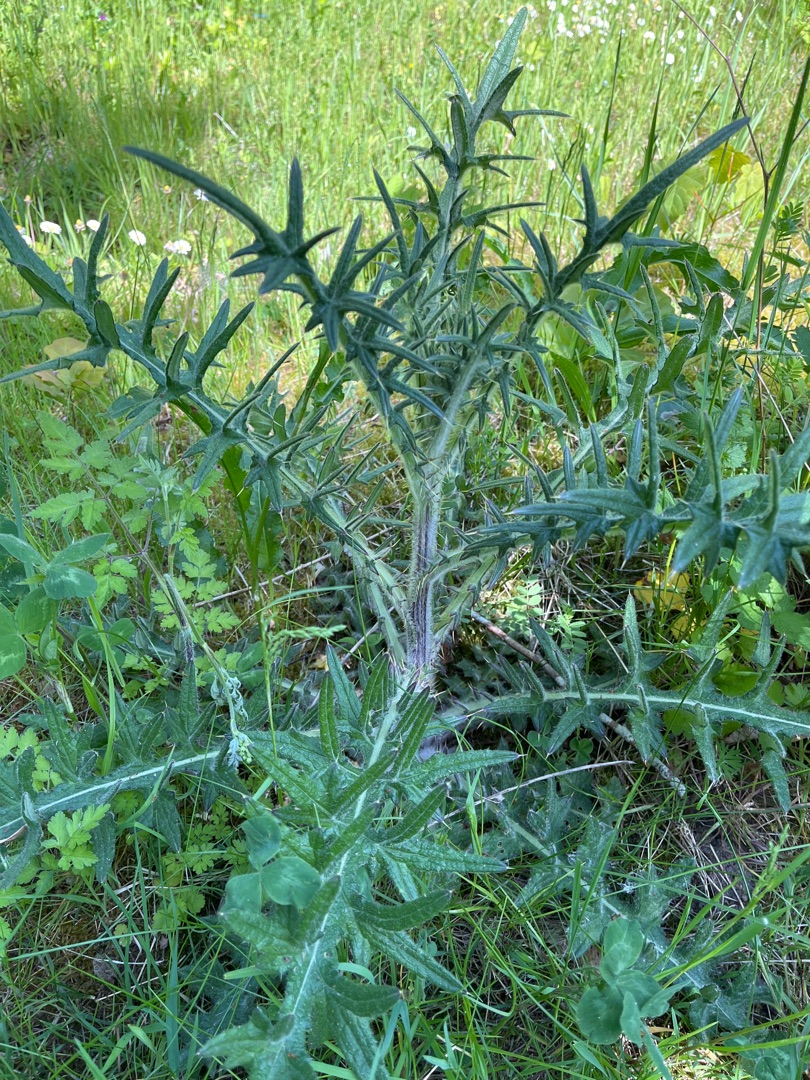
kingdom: Plantae
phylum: Tracheophyta
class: Magnoliopsida
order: Asterales
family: Asteraceae
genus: Cirsium
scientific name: Cirsium vulgare
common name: Horse-tidsel
